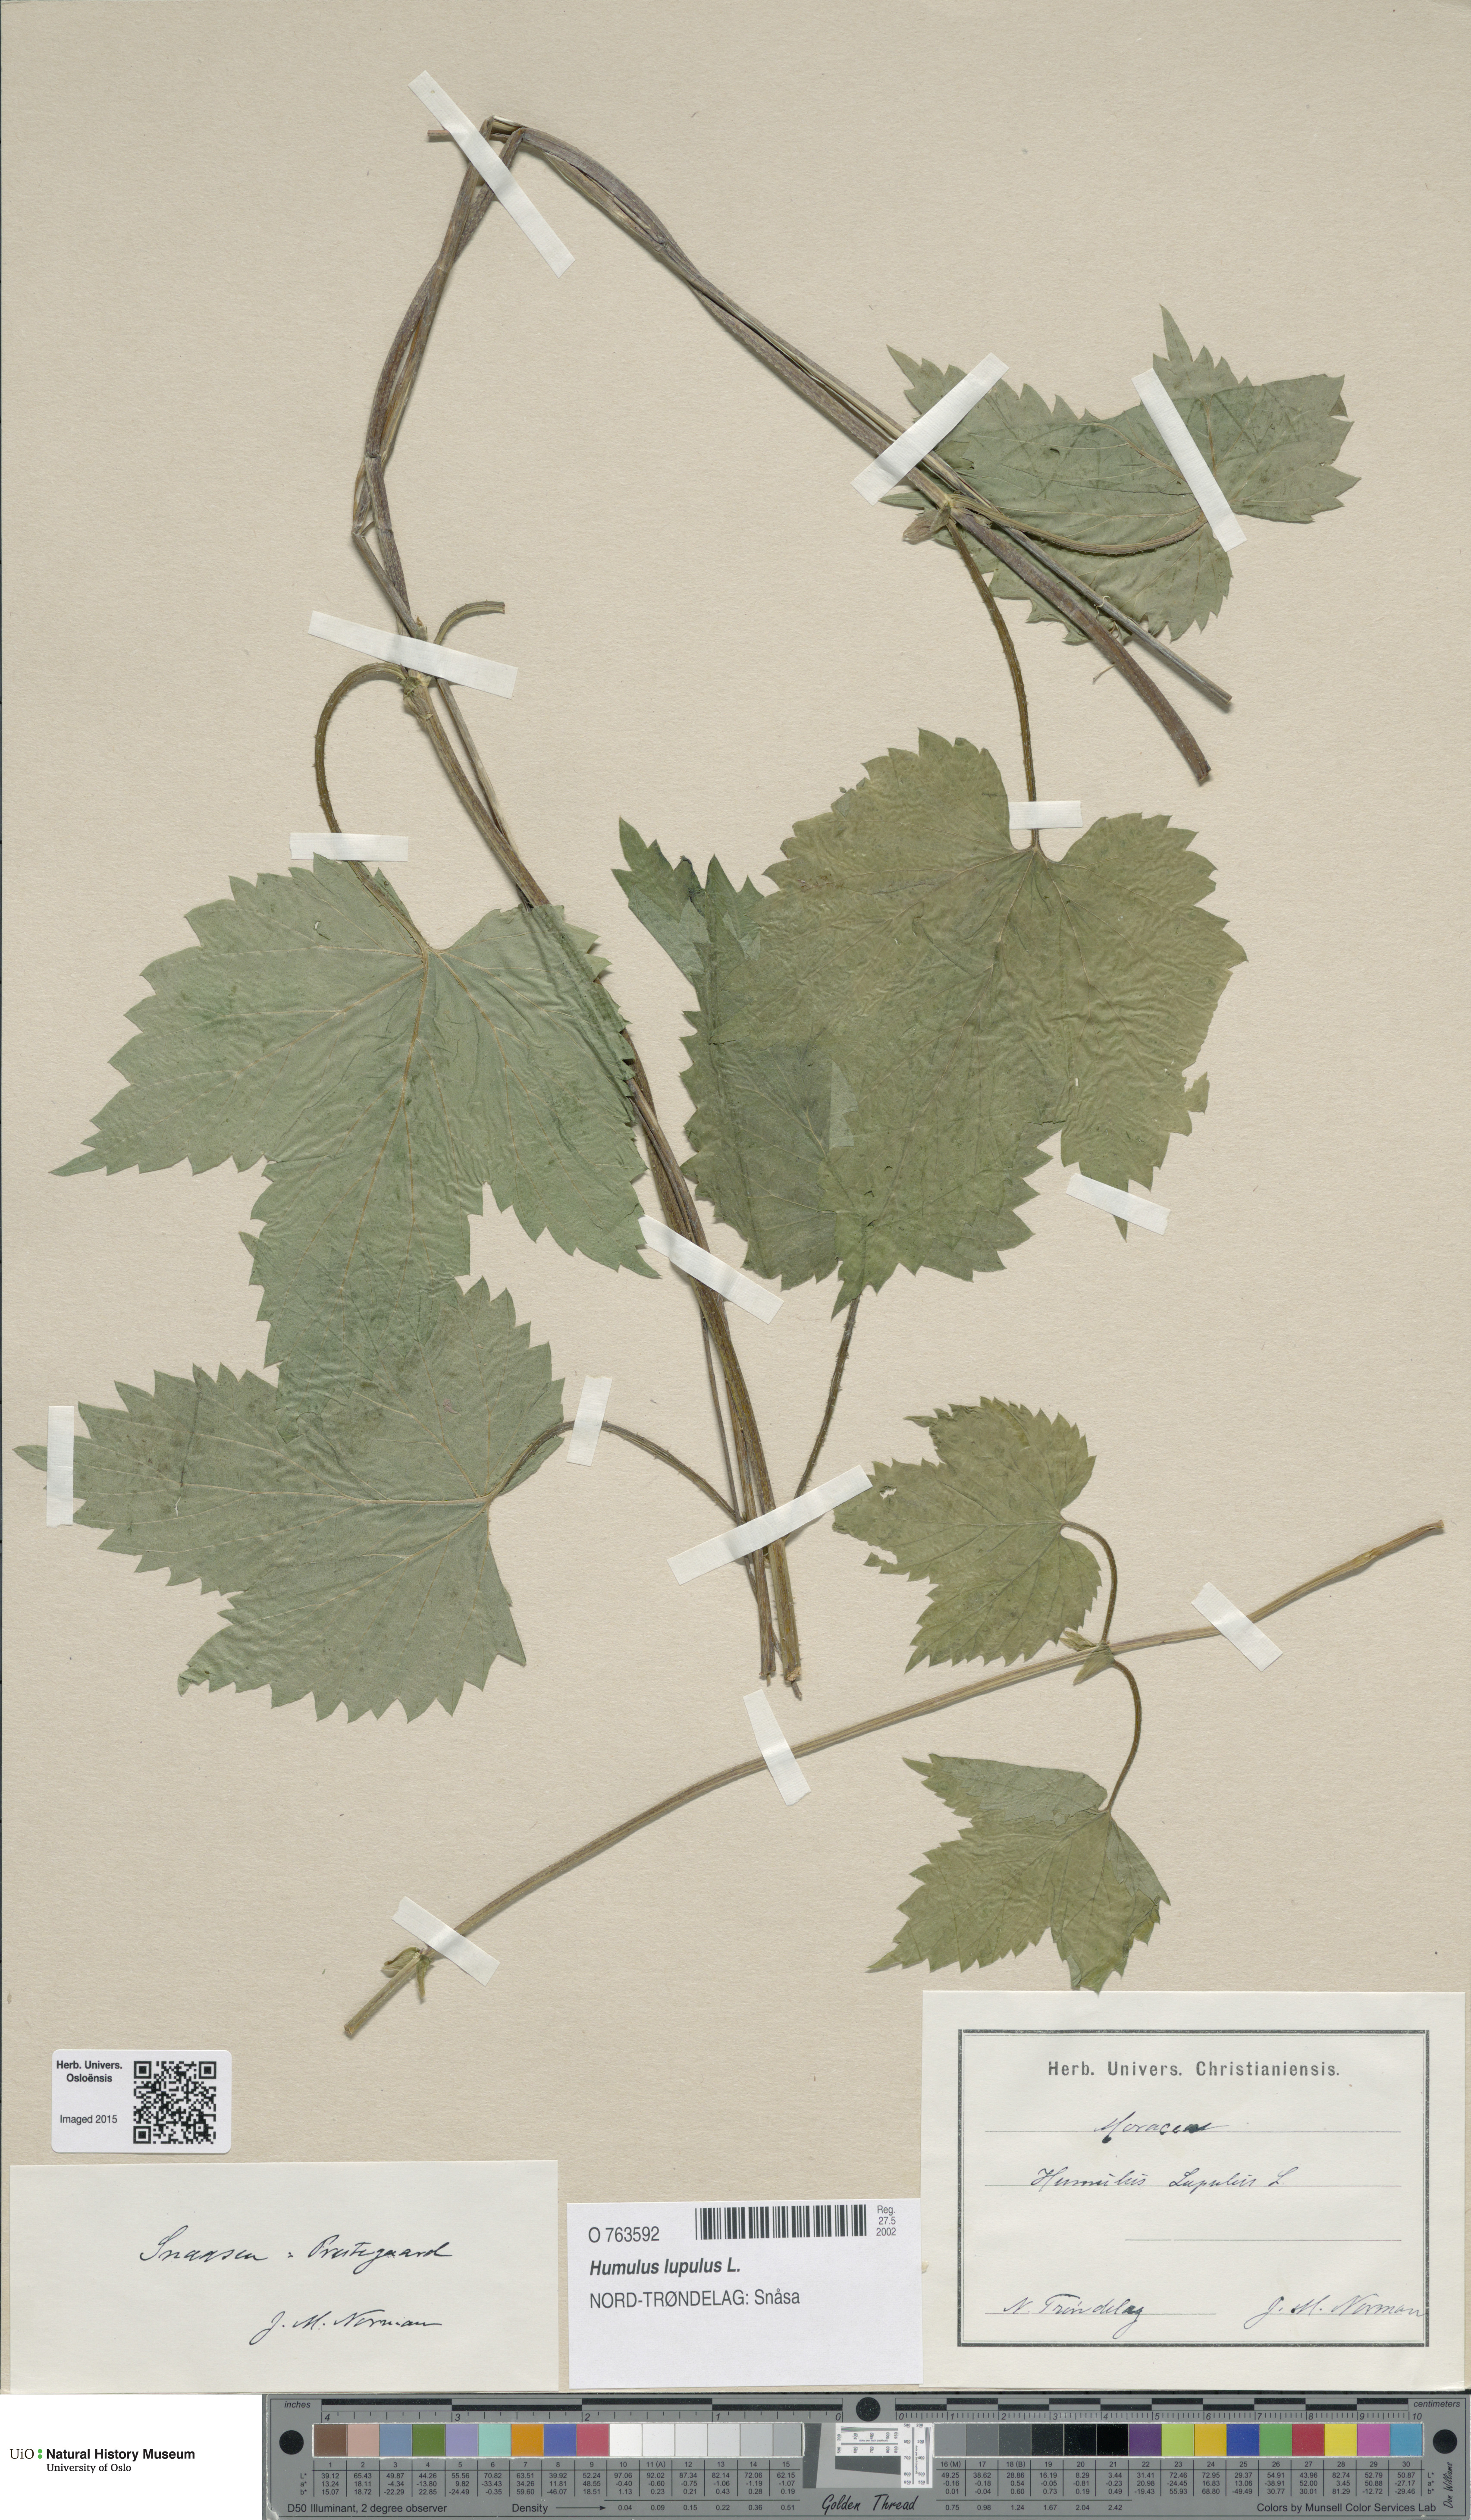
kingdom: Plantae
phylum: Tracheophyta
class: Magnoliopsida
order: Rosales
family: Cannabaceae
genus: Humulus
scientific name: Humulus lupulus
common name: Hop
